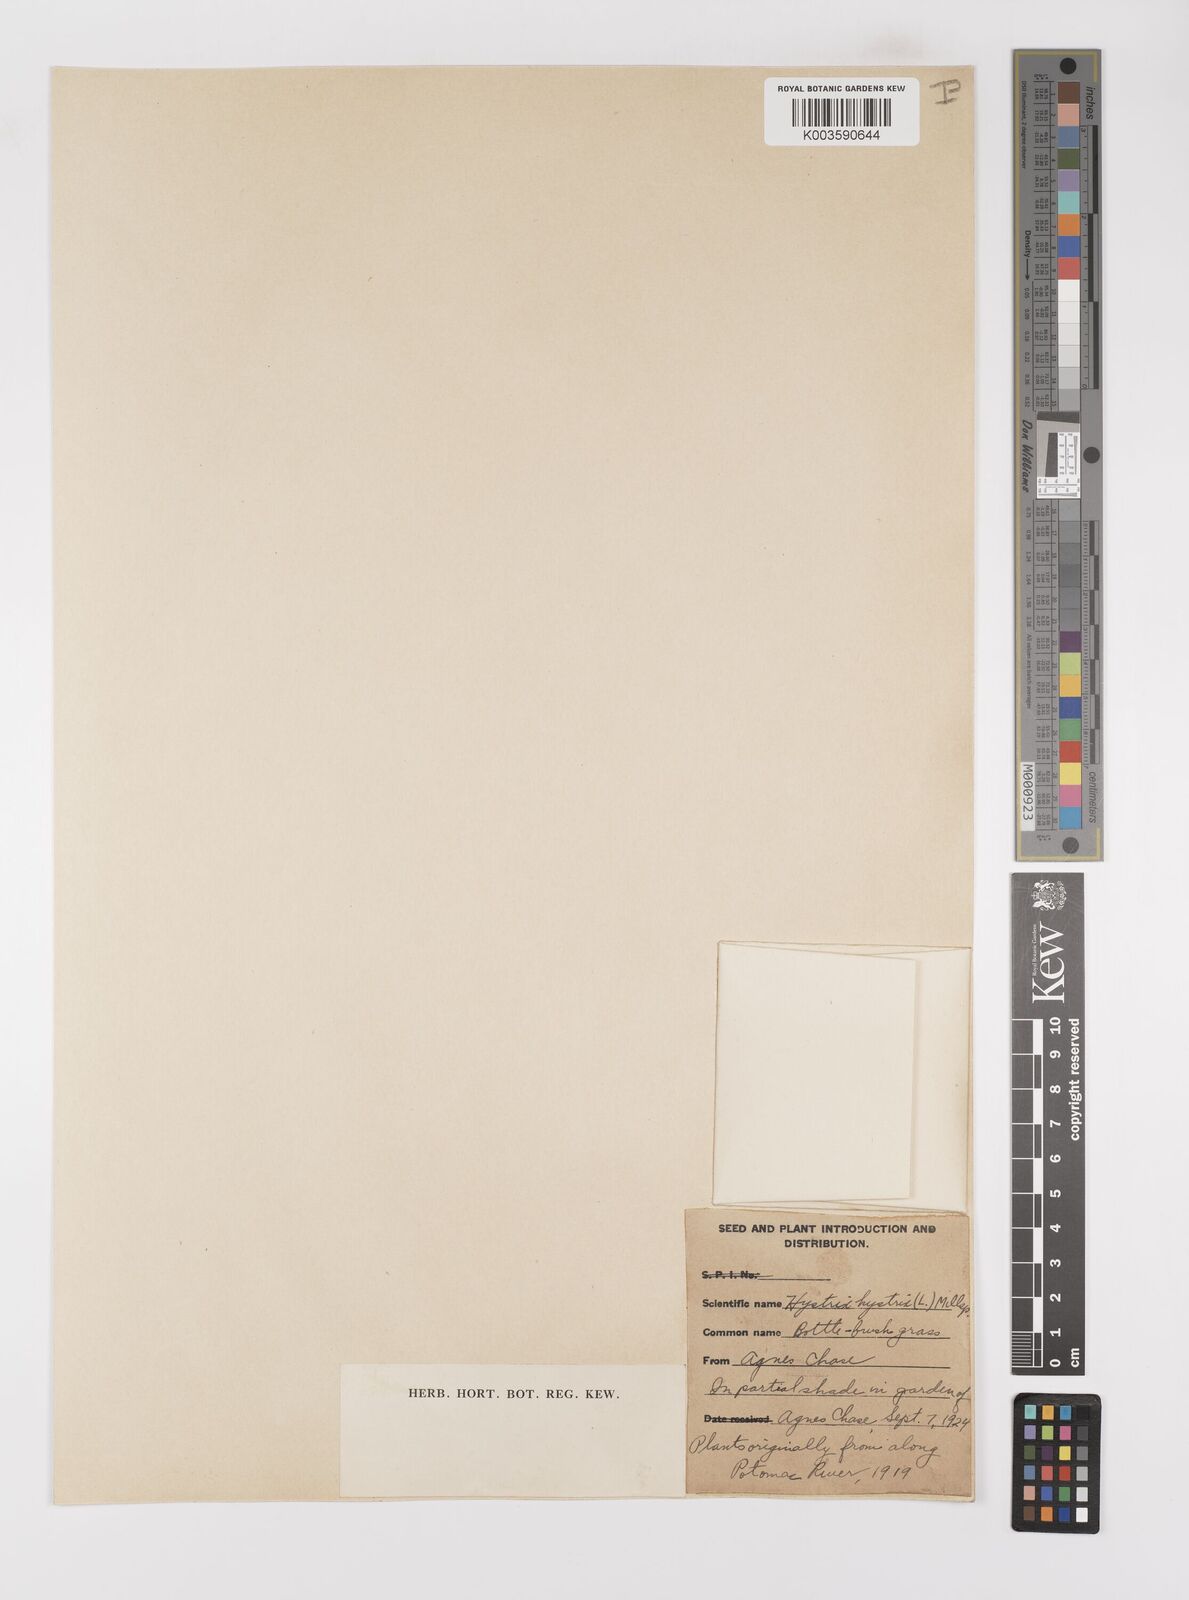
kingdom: Plantae
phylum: Tracheophyta
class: Liliopsida
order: Poales
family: Poaceae
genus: Elymus
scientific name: Elymus hystrix
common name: Bottlebrush grass
